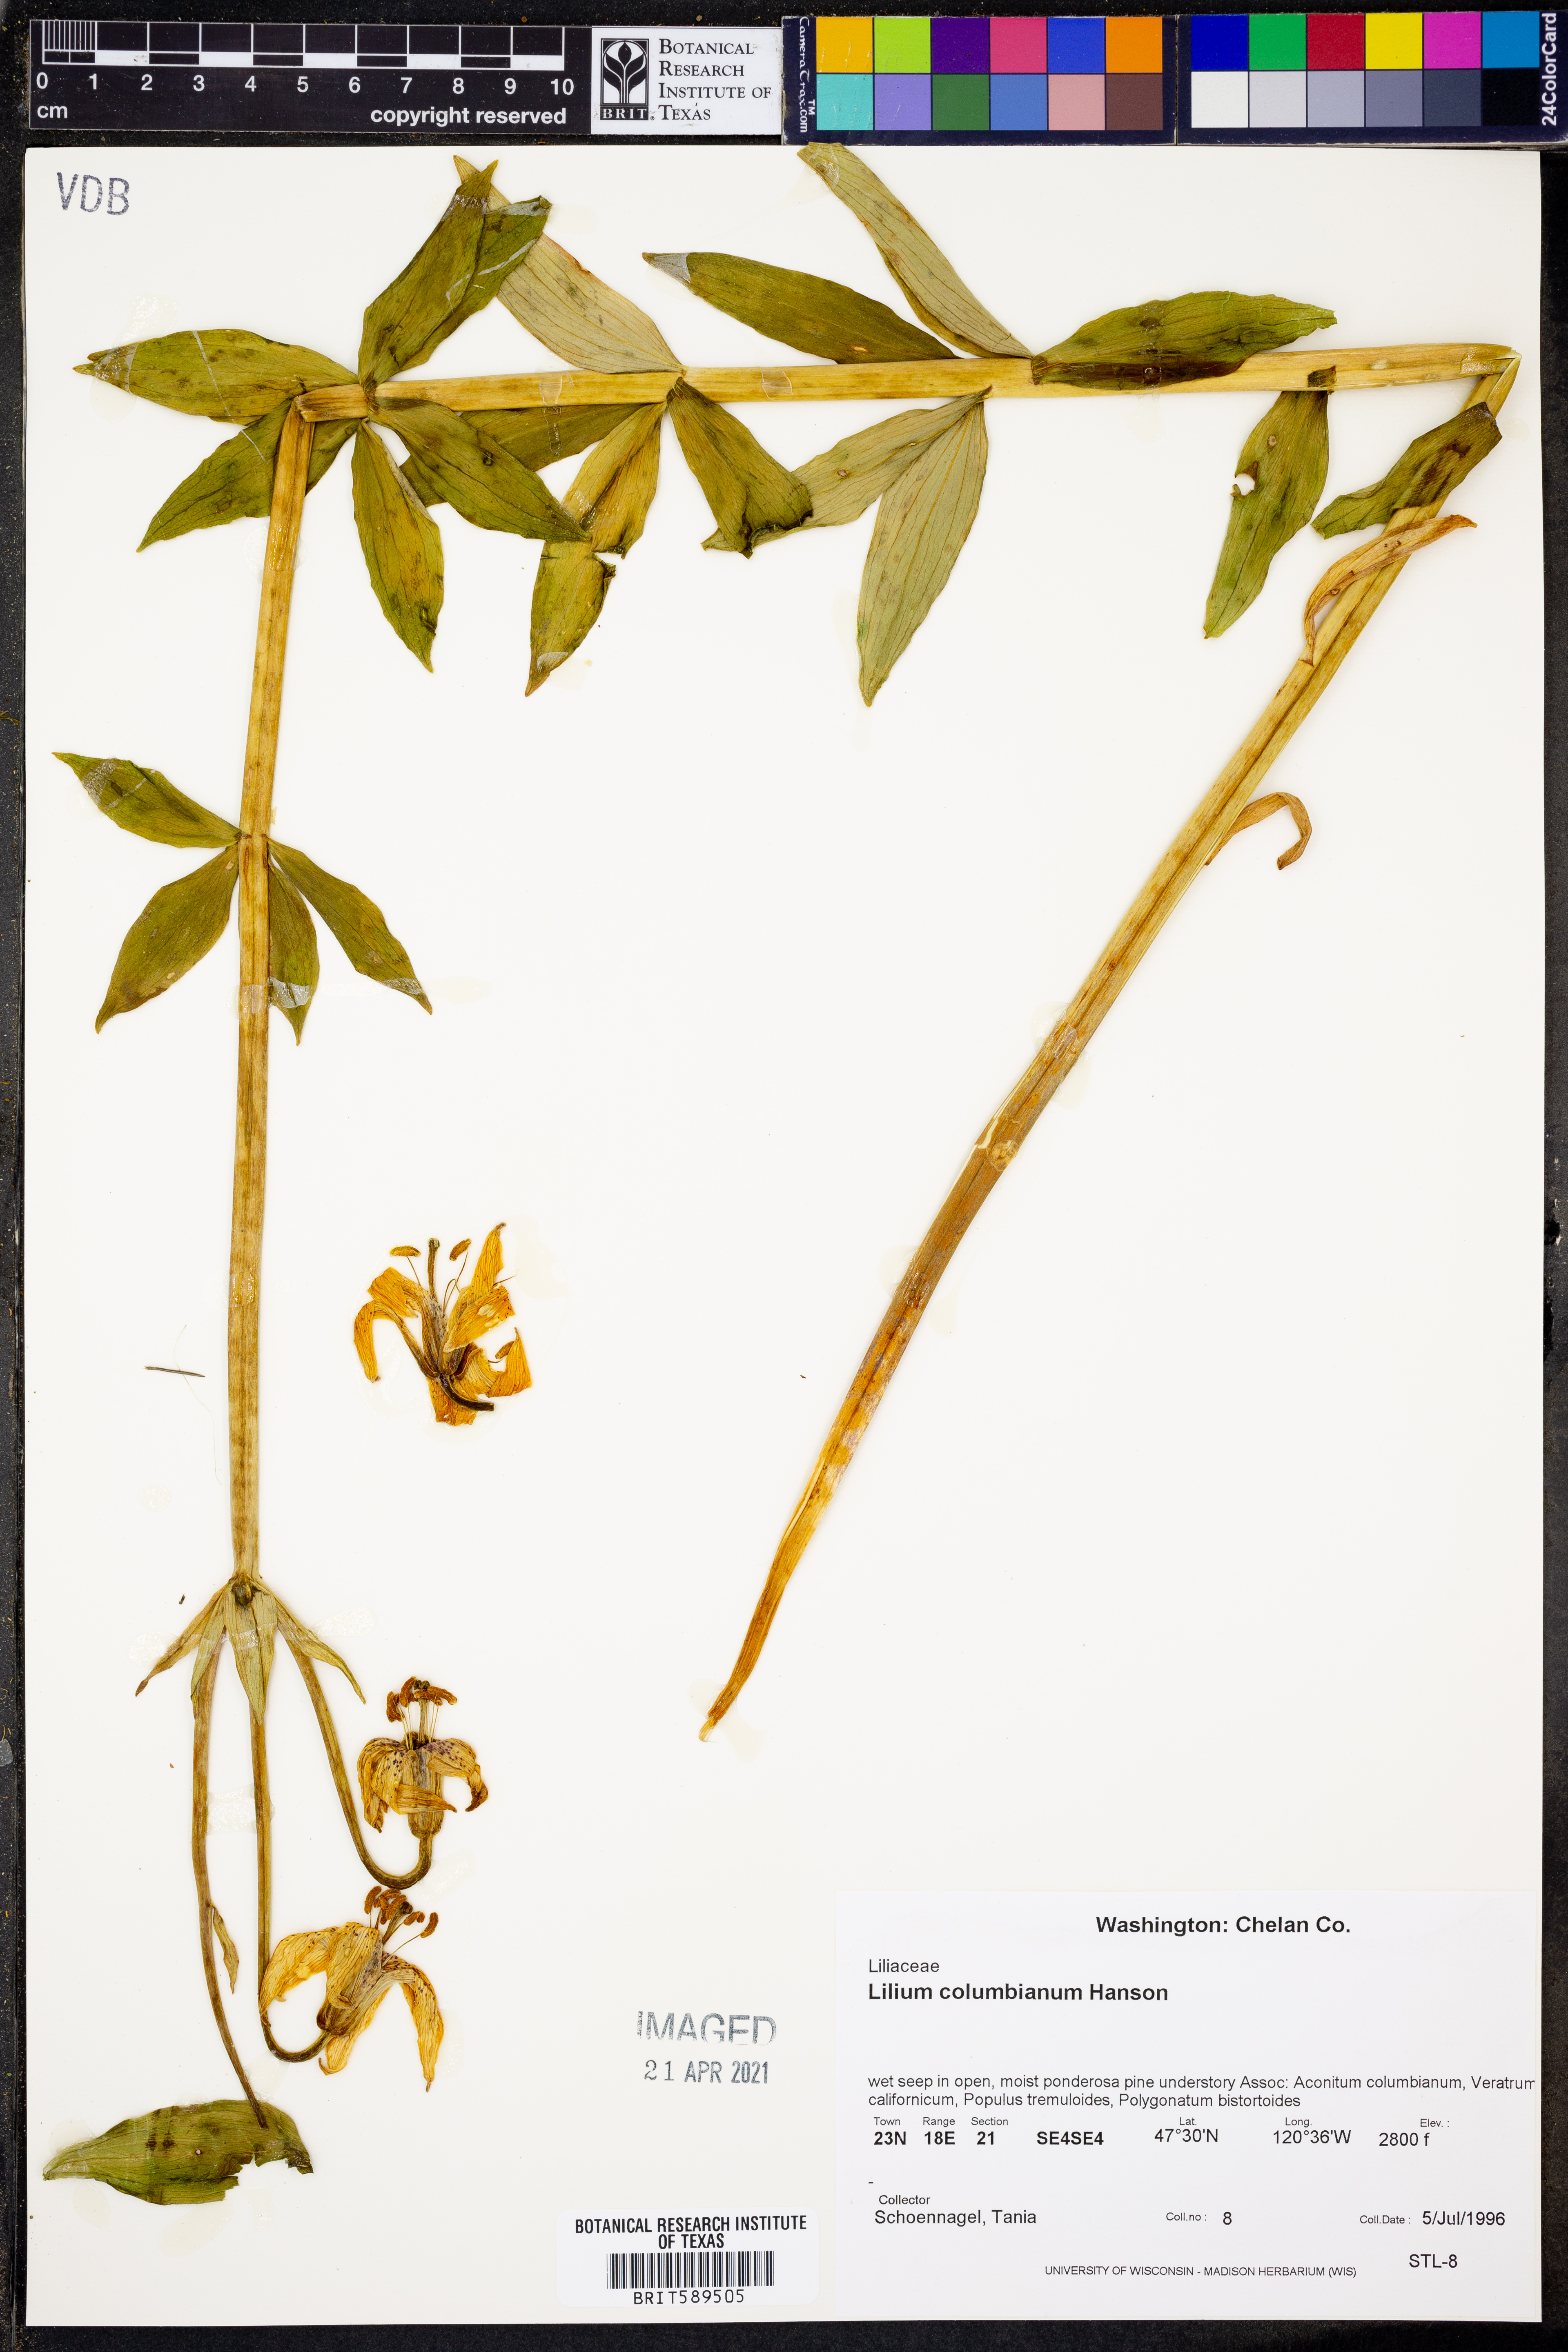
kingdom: Plantae
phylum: Tracheophyta
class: Liliopsida
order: Liliales
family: Liliaceae
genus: Lilium
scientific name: Lilium columbianum
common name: Columbia lily
